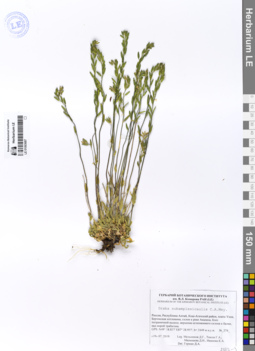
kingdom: Plantae
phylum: Tracheophyta
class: Magnoliopsida
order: Brassicales
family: Brassicaceae
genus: Draba
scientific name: Draba subamplexicaulis
